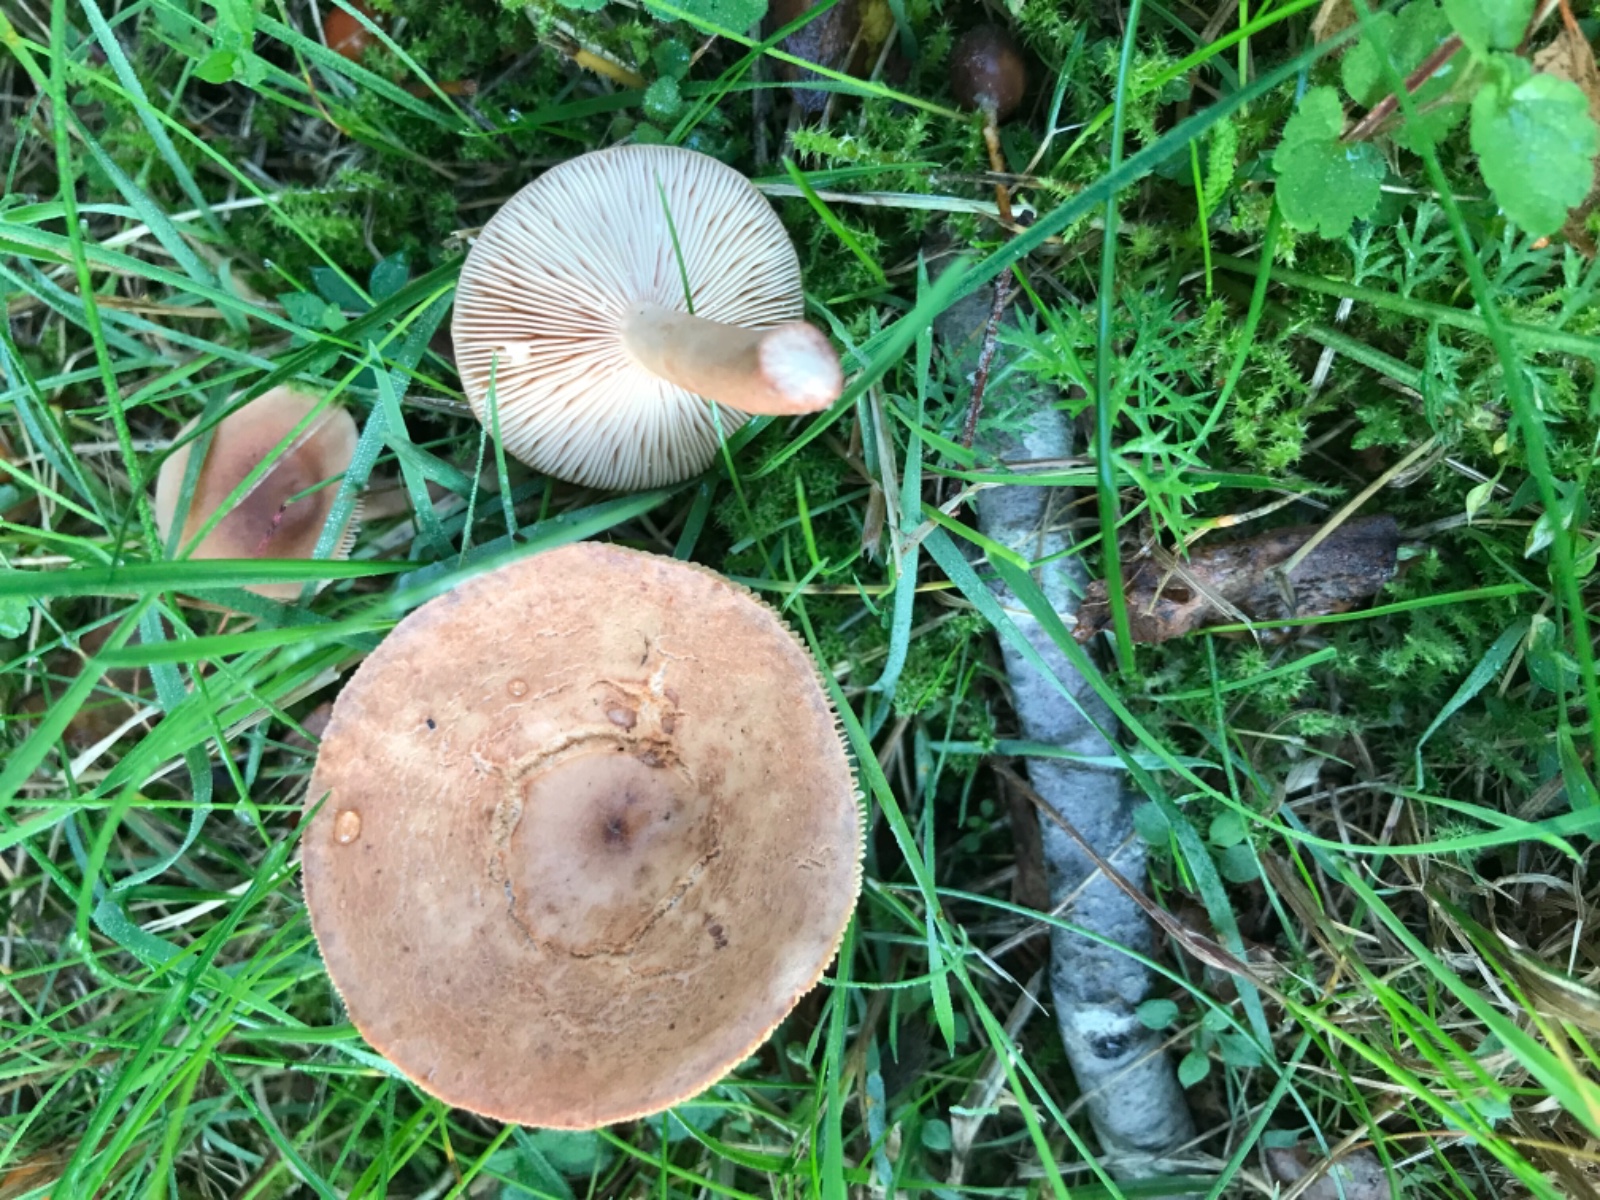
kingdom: Fungi
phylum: Basidiomycota
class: Agaricomycetes
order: Russulales
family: Russulaceae
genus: Lactarius
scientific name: Lactarius tabidus
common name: rynket mælkehat
